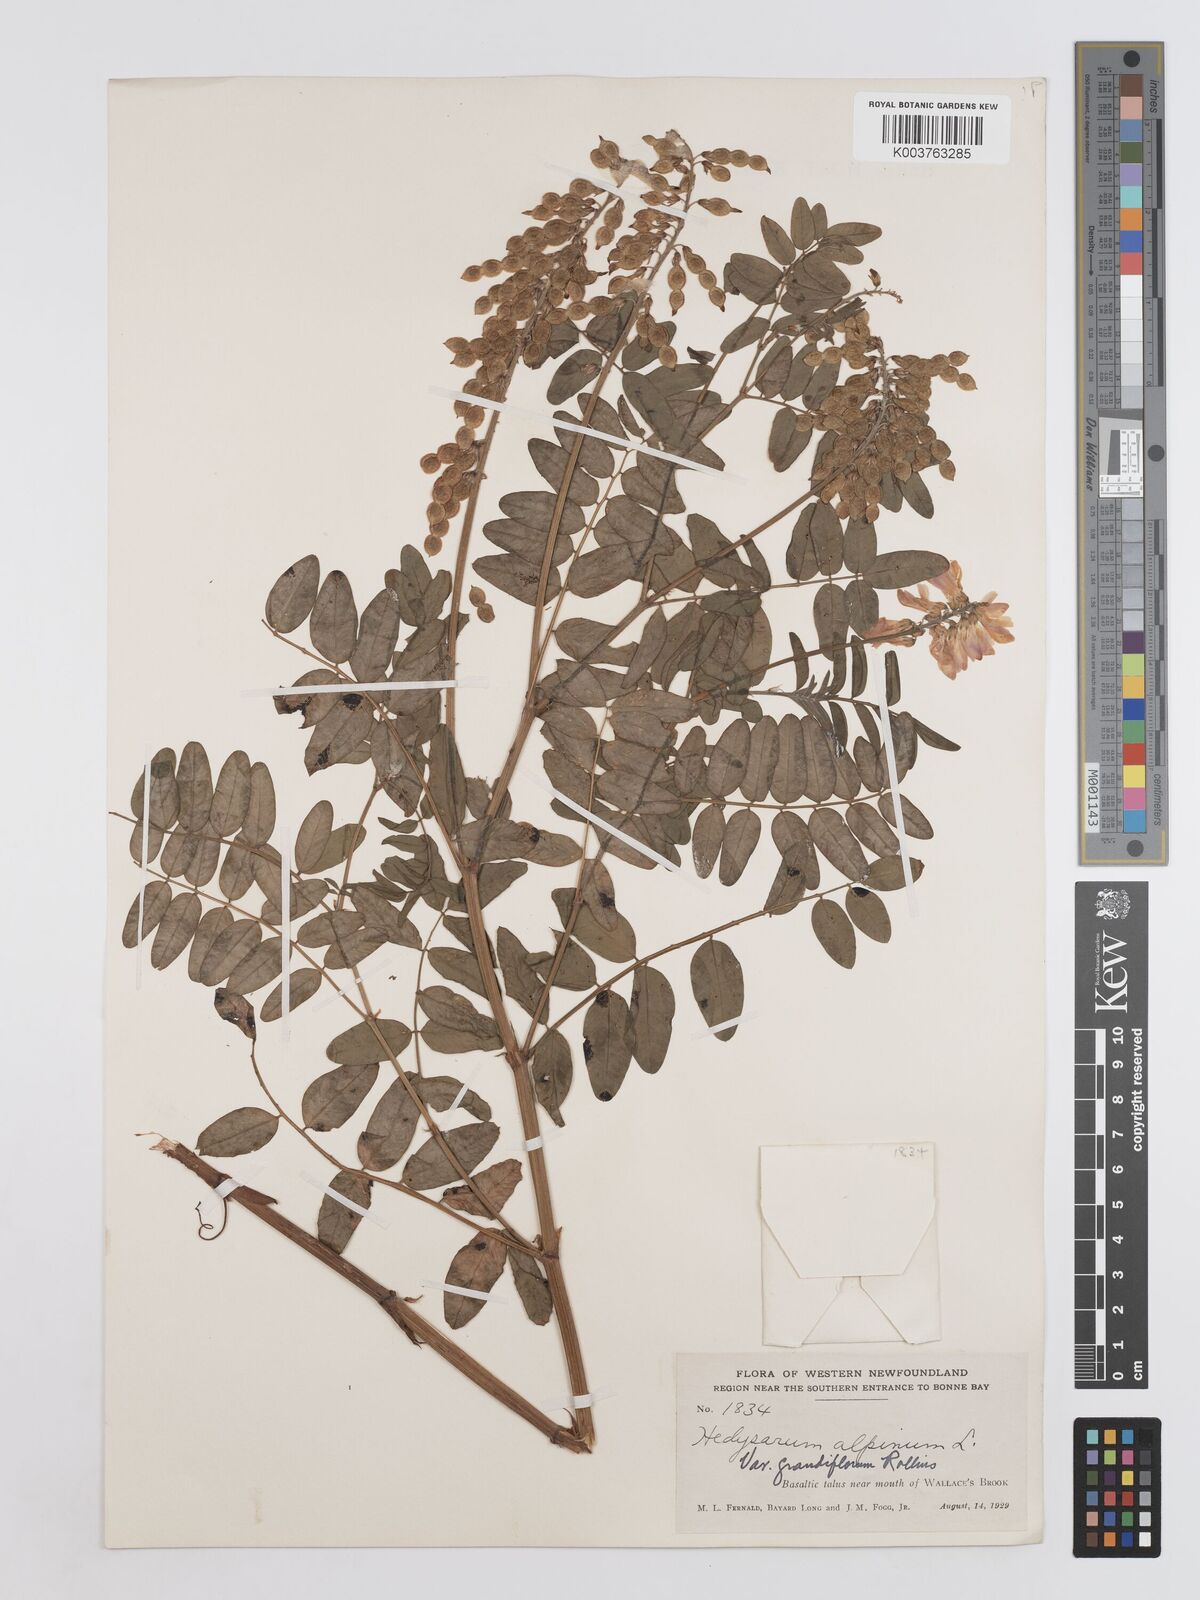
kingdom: Plantae
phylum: Tracheophyta
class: Magnoliopsida
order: Fabales
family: Fabaceae
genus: Hedysarum
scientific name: Hedysarum alpinum
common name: Alpine sweet-vetch
